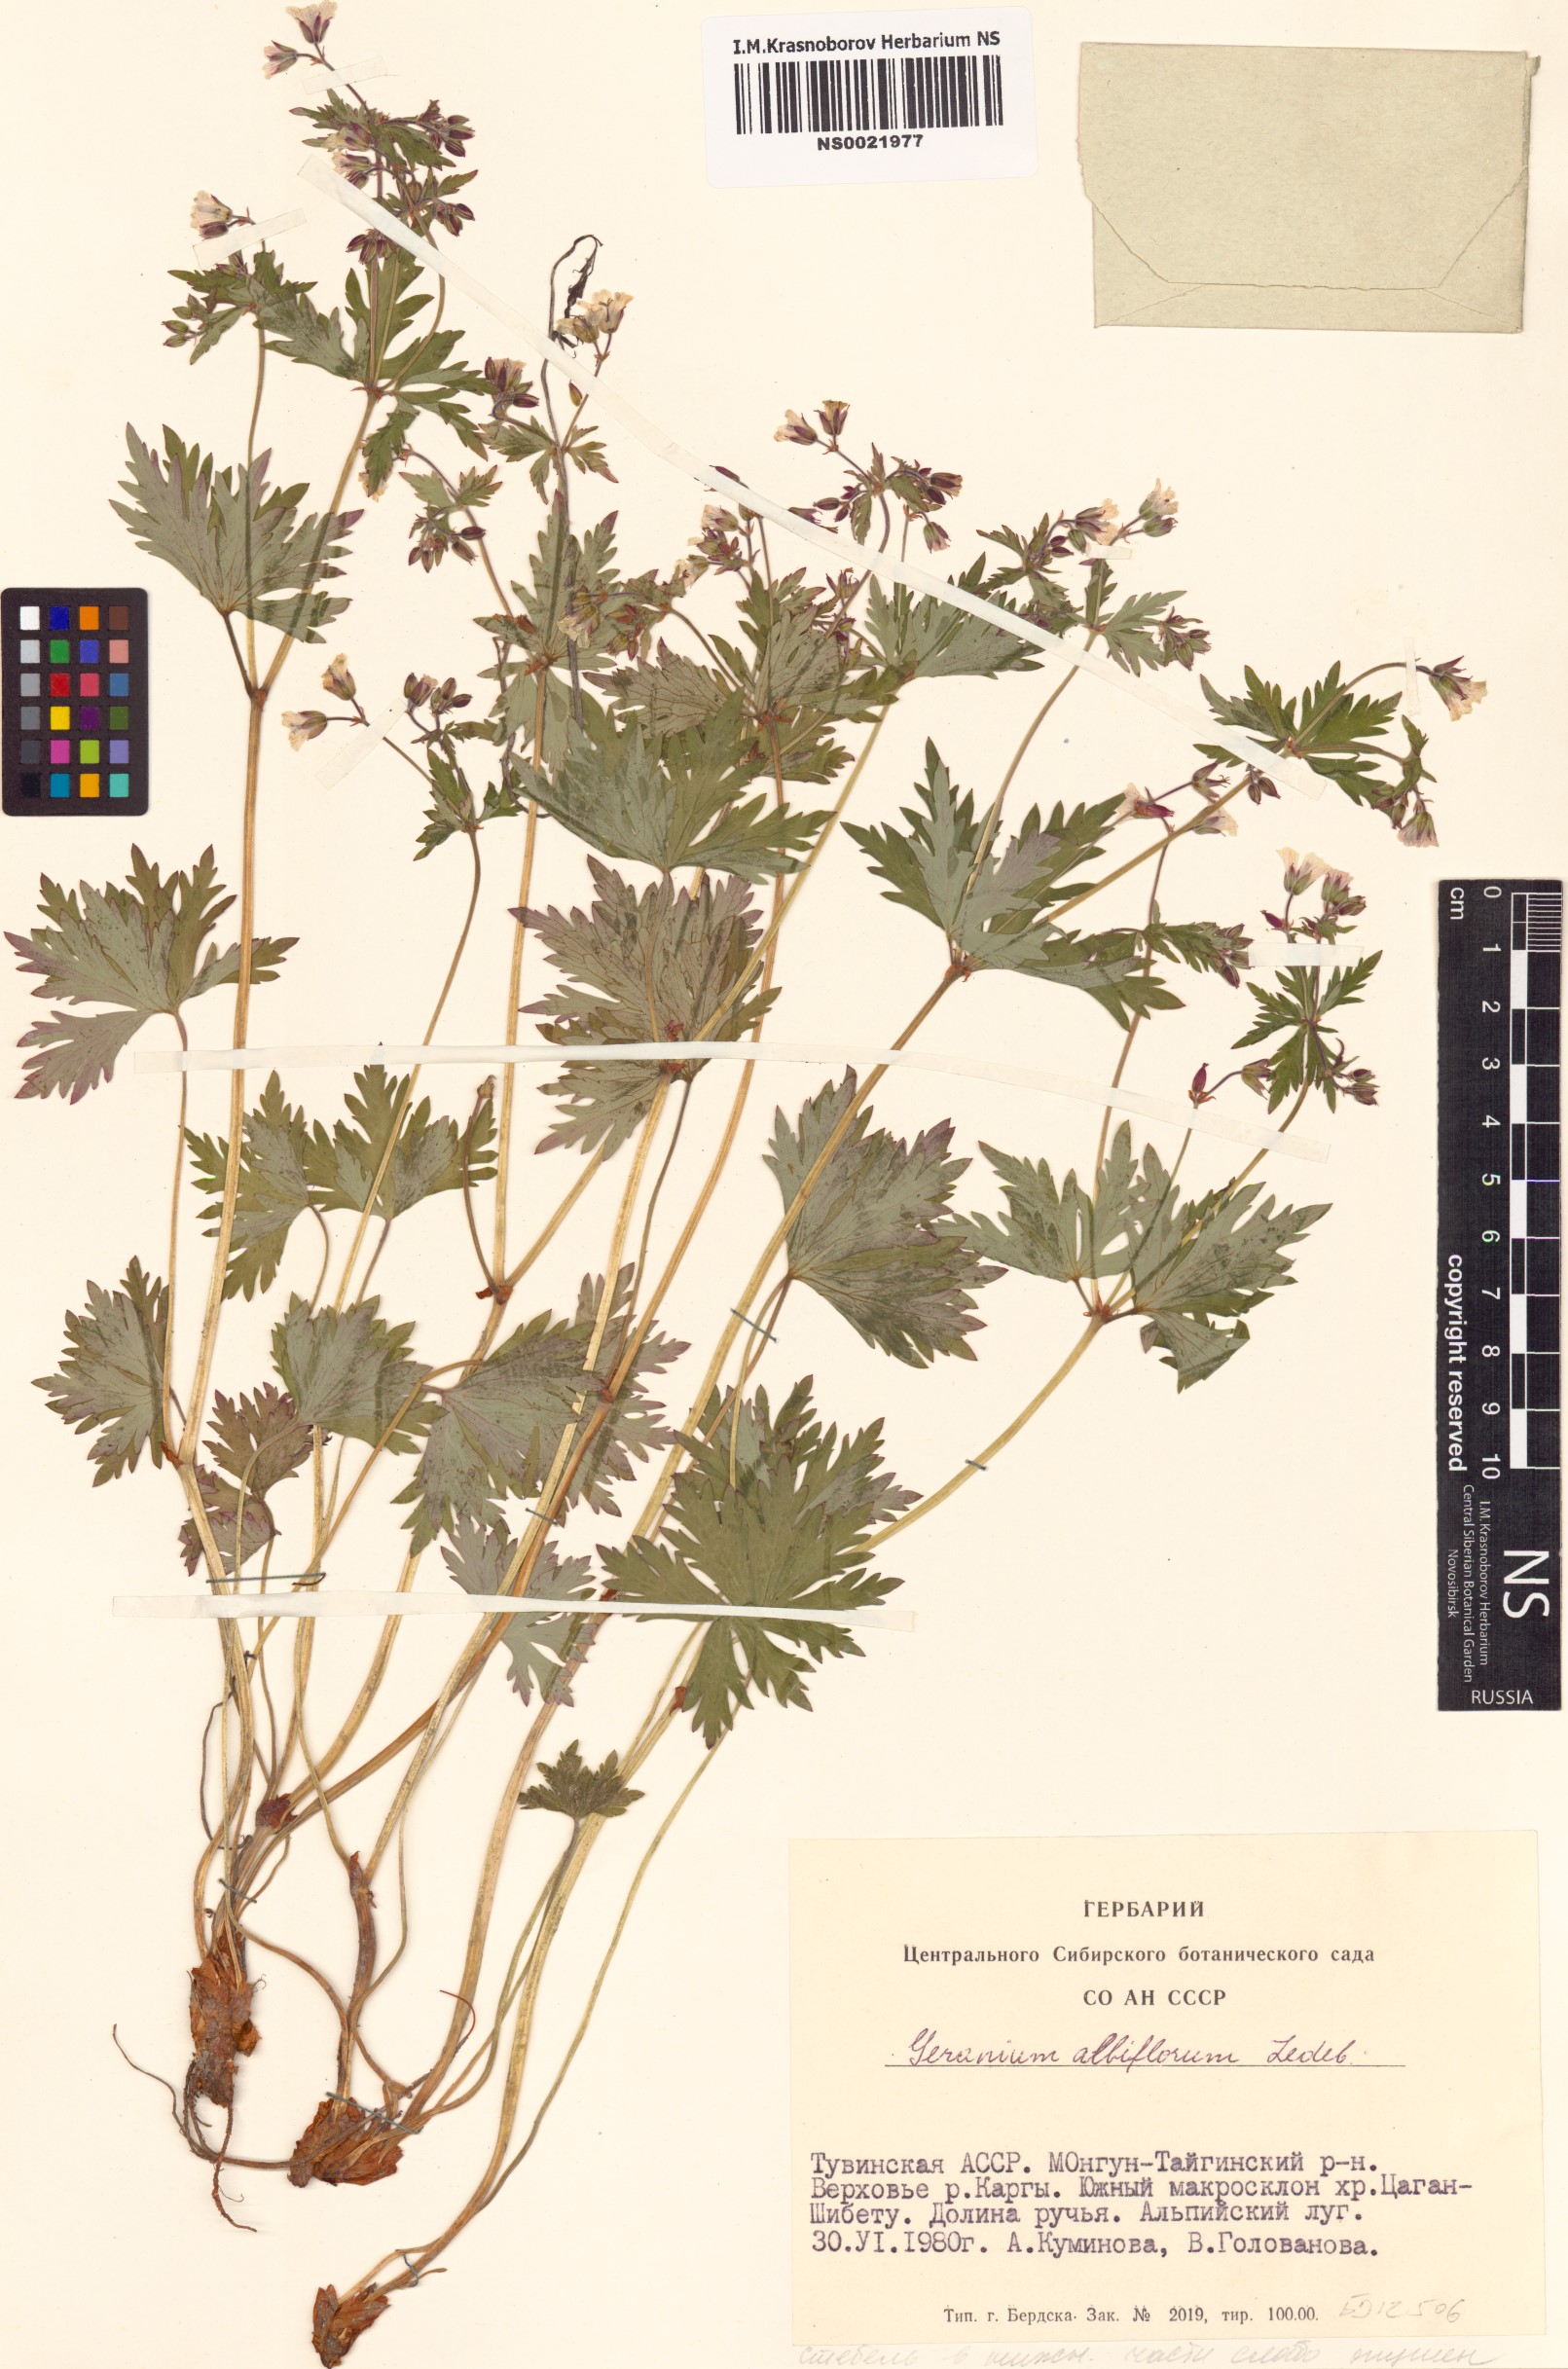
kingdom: Plantae
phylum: Tracheophyta
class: Magnoliopsida
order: Geraniales
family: Geraniaceae
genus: Geranium
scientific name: Geranium albiflorum
